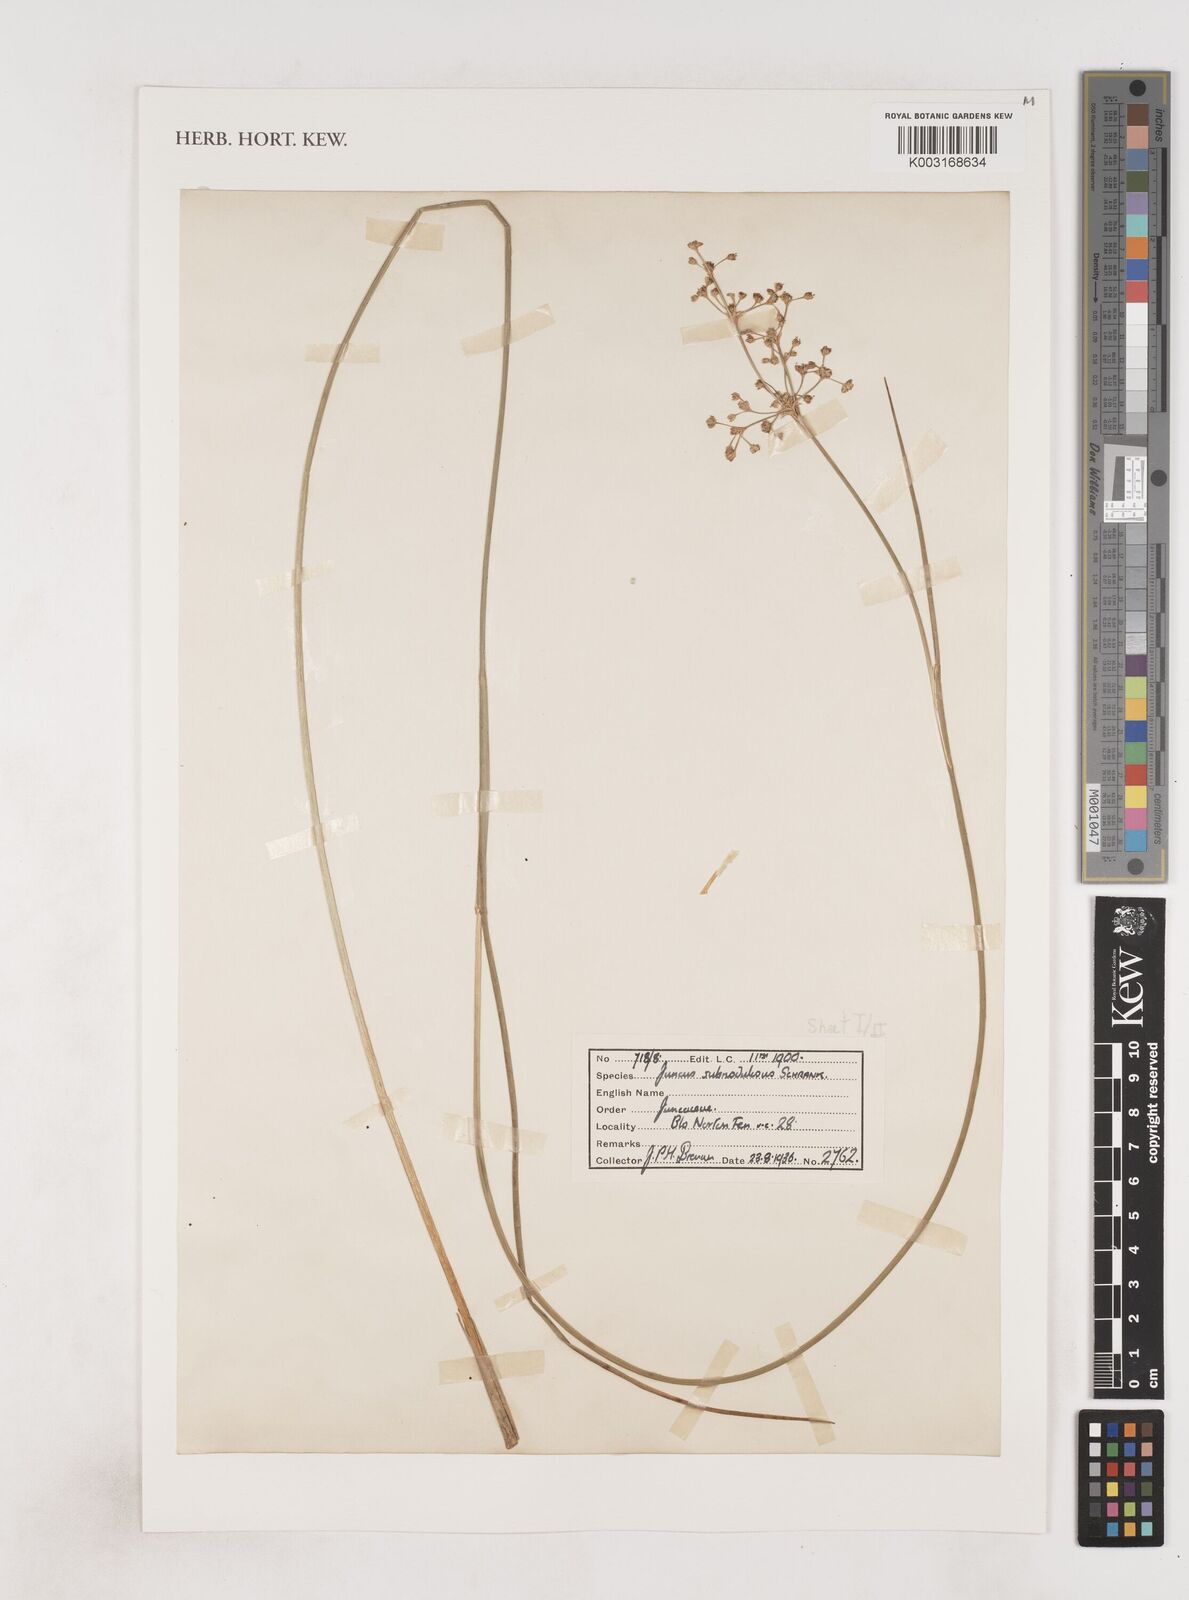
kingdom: Plantae
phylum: Tracheophyta
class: Liliopsida
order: Poales
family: Juncaceae
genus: Juncus
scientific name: Juncus subnodulosus
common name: Blunt-flowered rush
